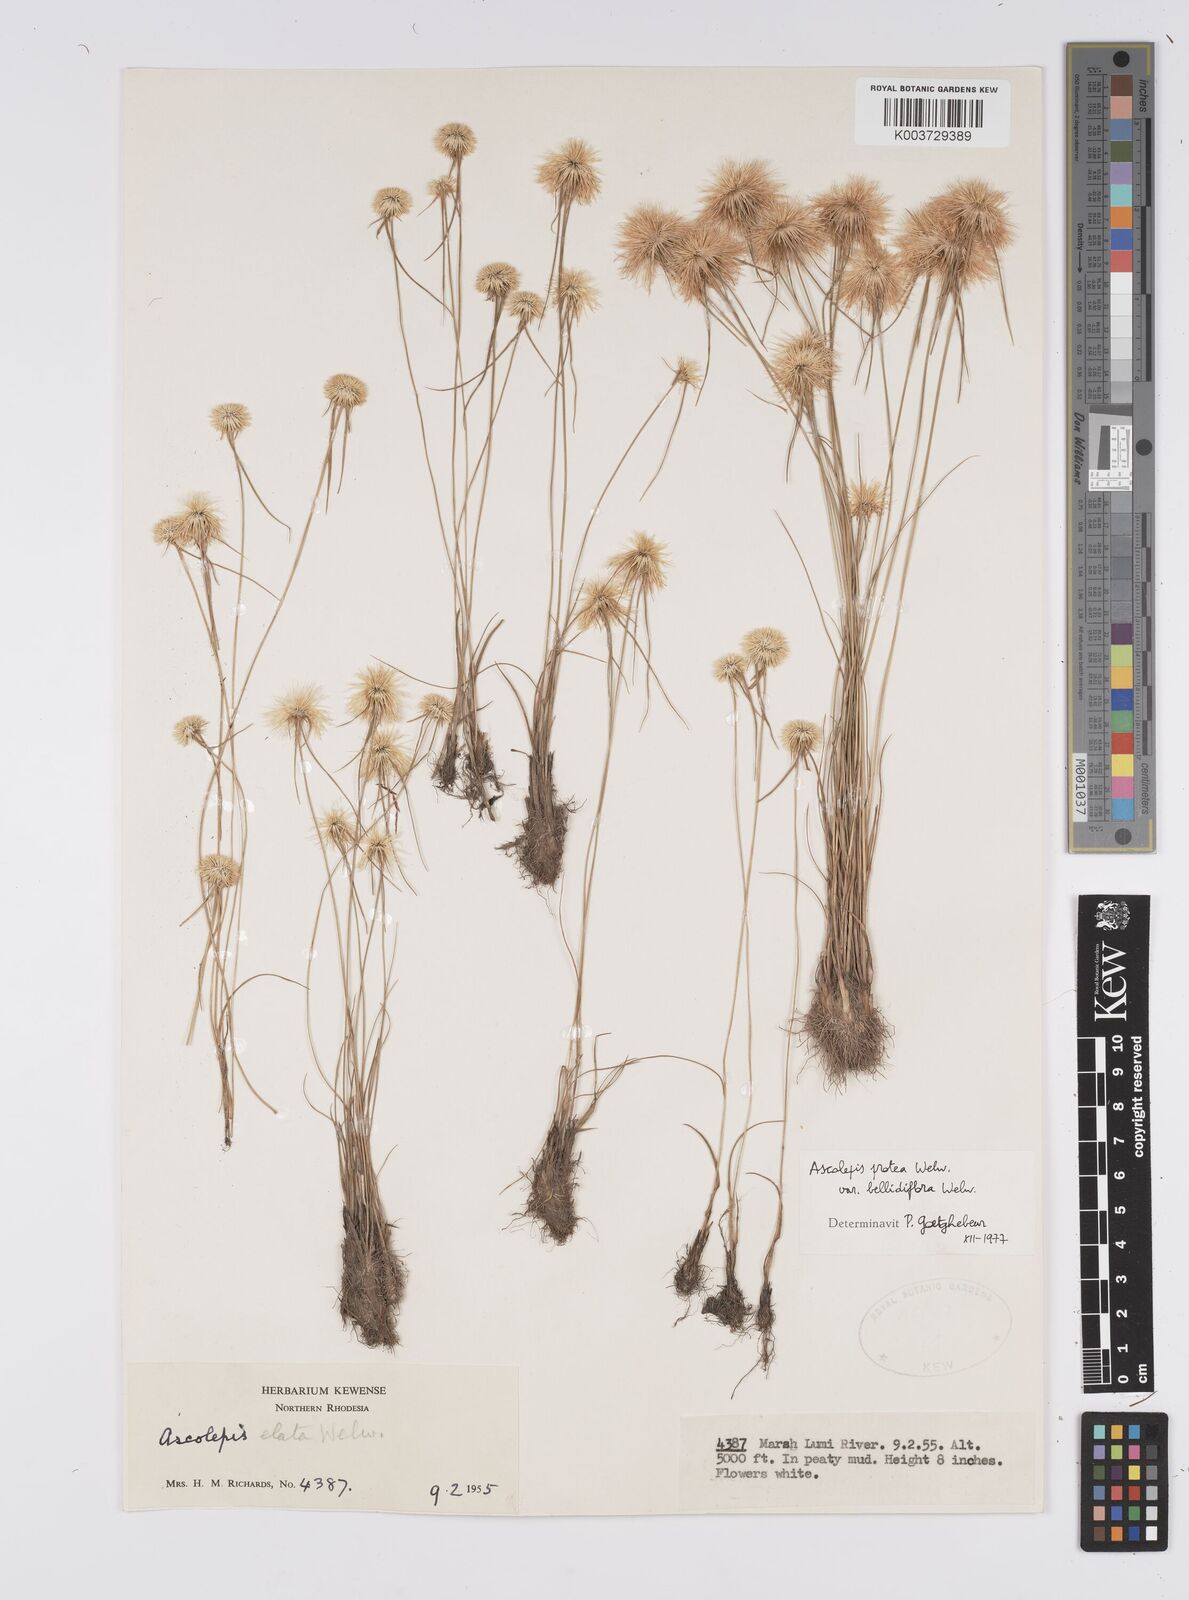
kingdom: Plantae
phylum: Tracheophyta
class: Liliopsida
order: Poales
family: Cyperaceae
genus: Cyperus
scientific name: Cyperus proteus
